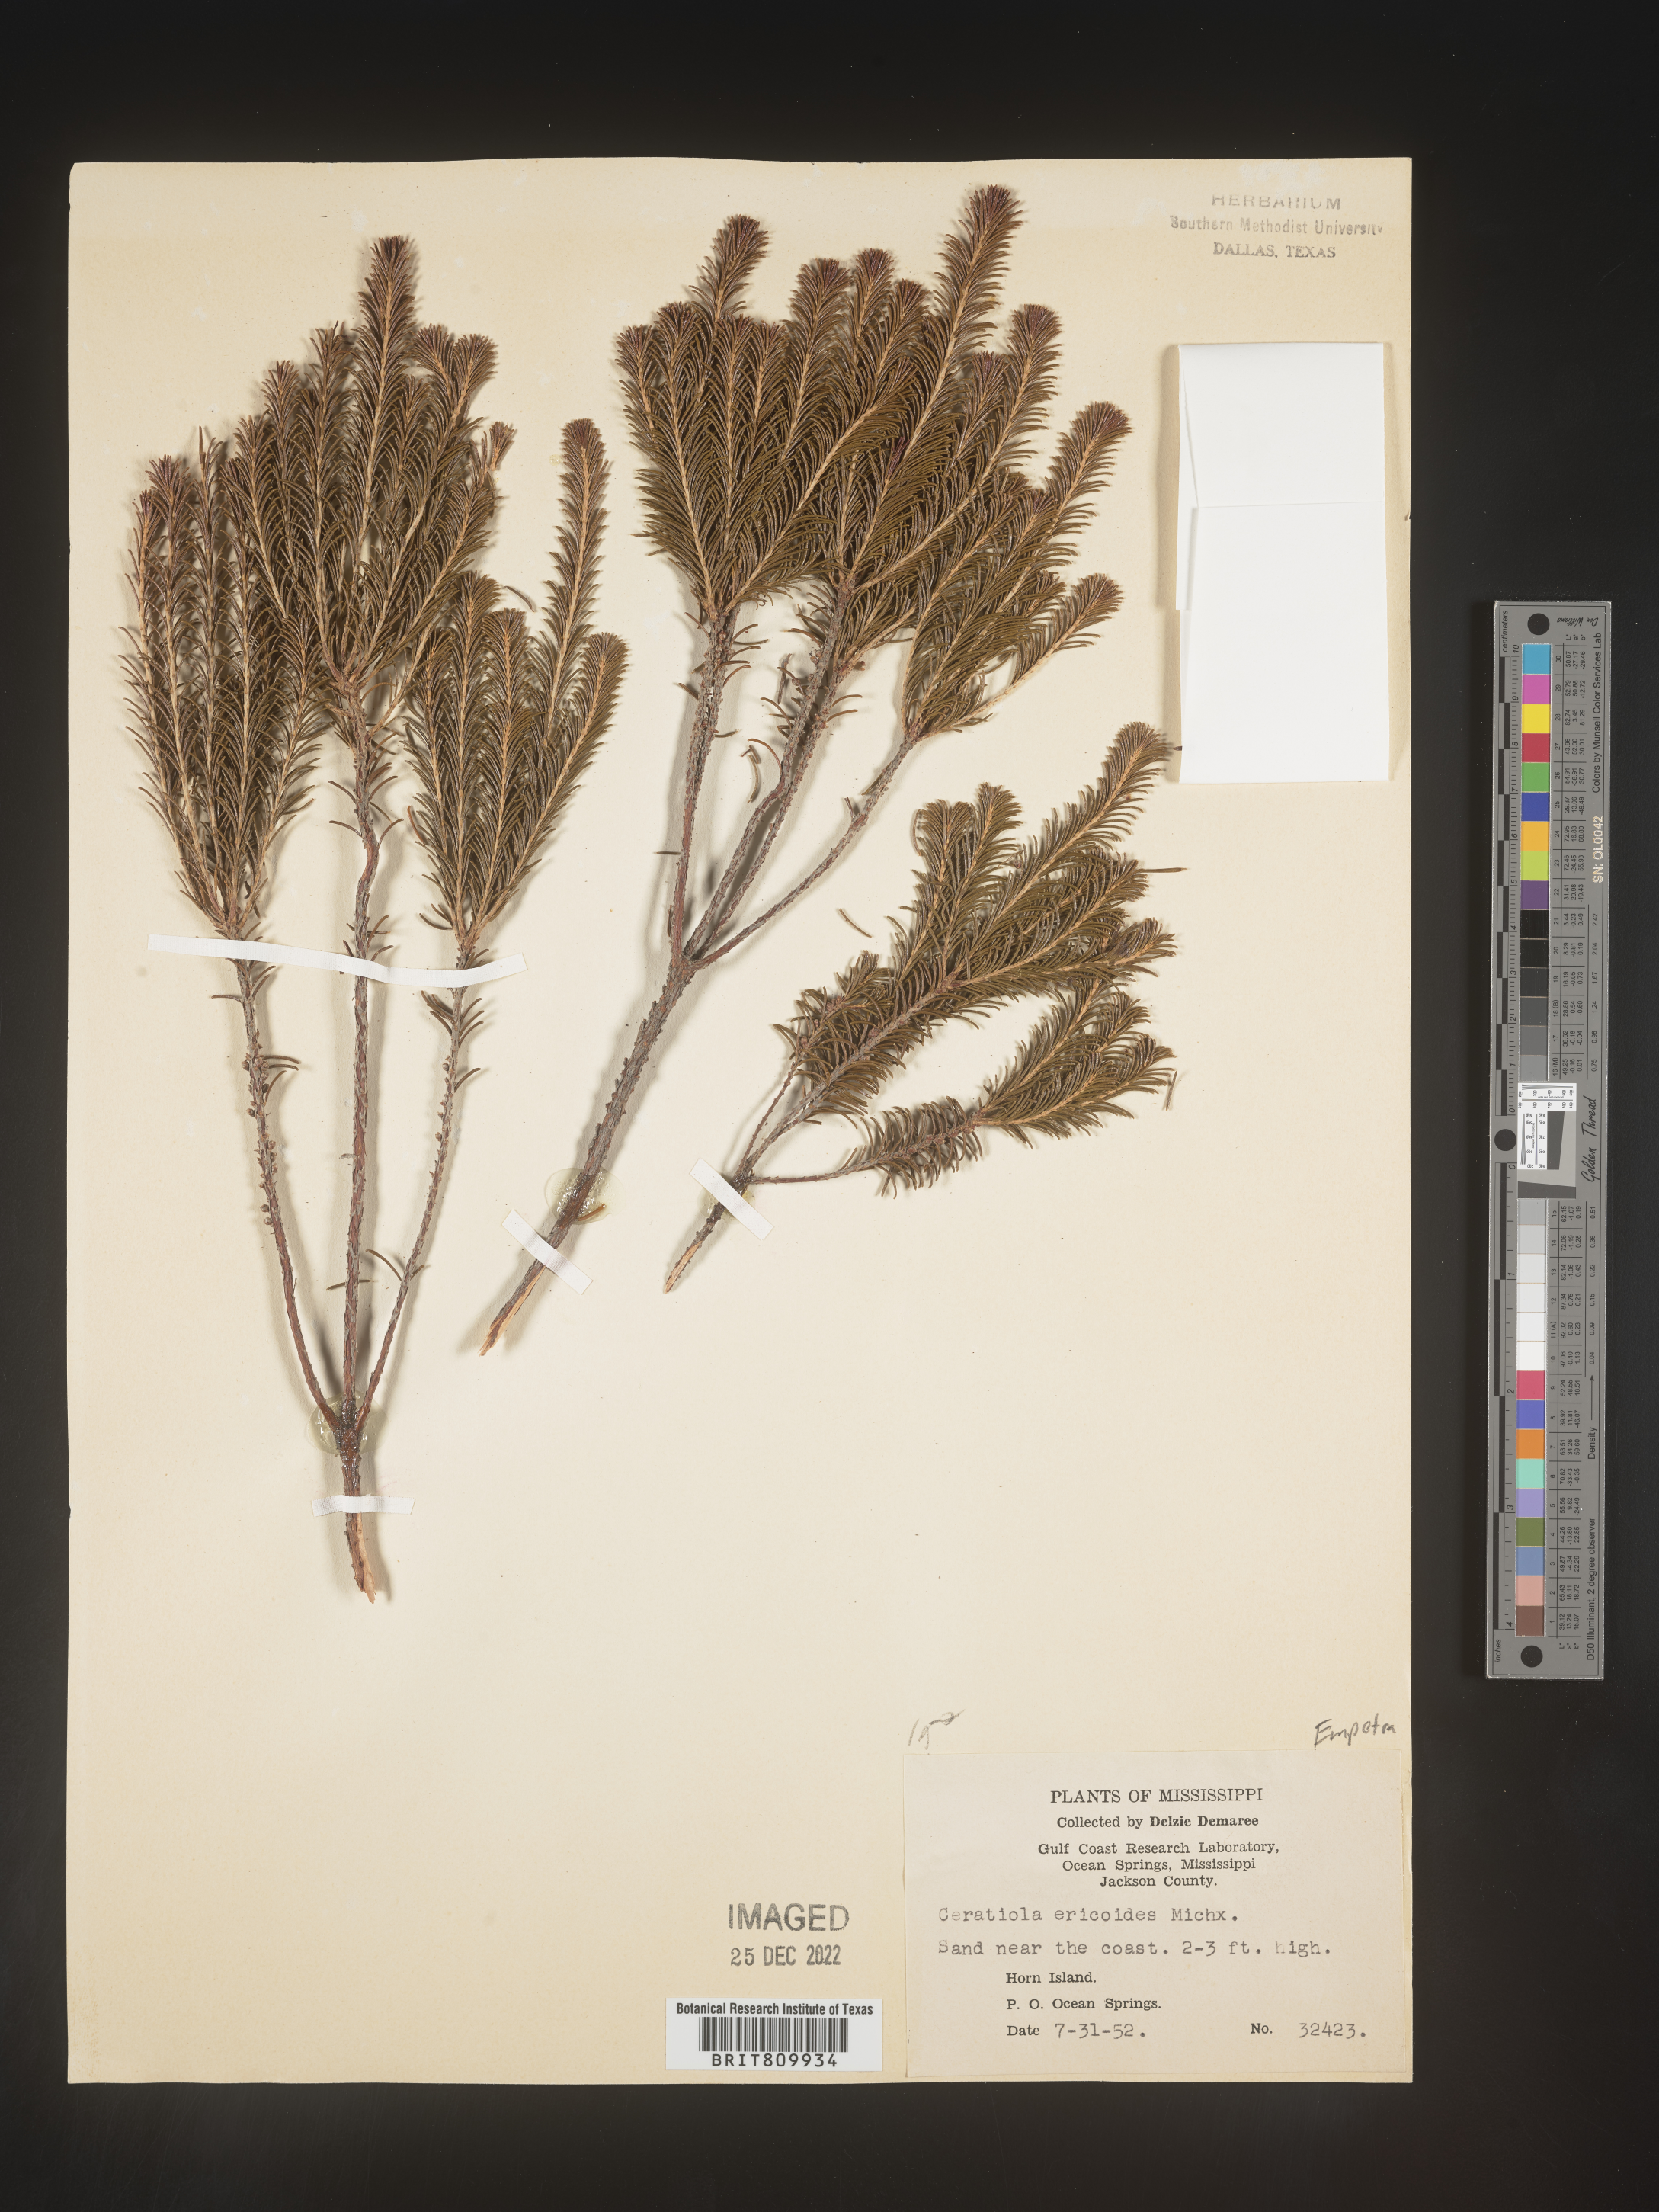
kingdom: Plantae
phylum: Tracheophyta
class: Magnoliopsida
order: Ericales
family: Ericaceae
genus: Ceratiola
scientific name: Ceratiola ericoides
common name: Sandhill-rosemary
